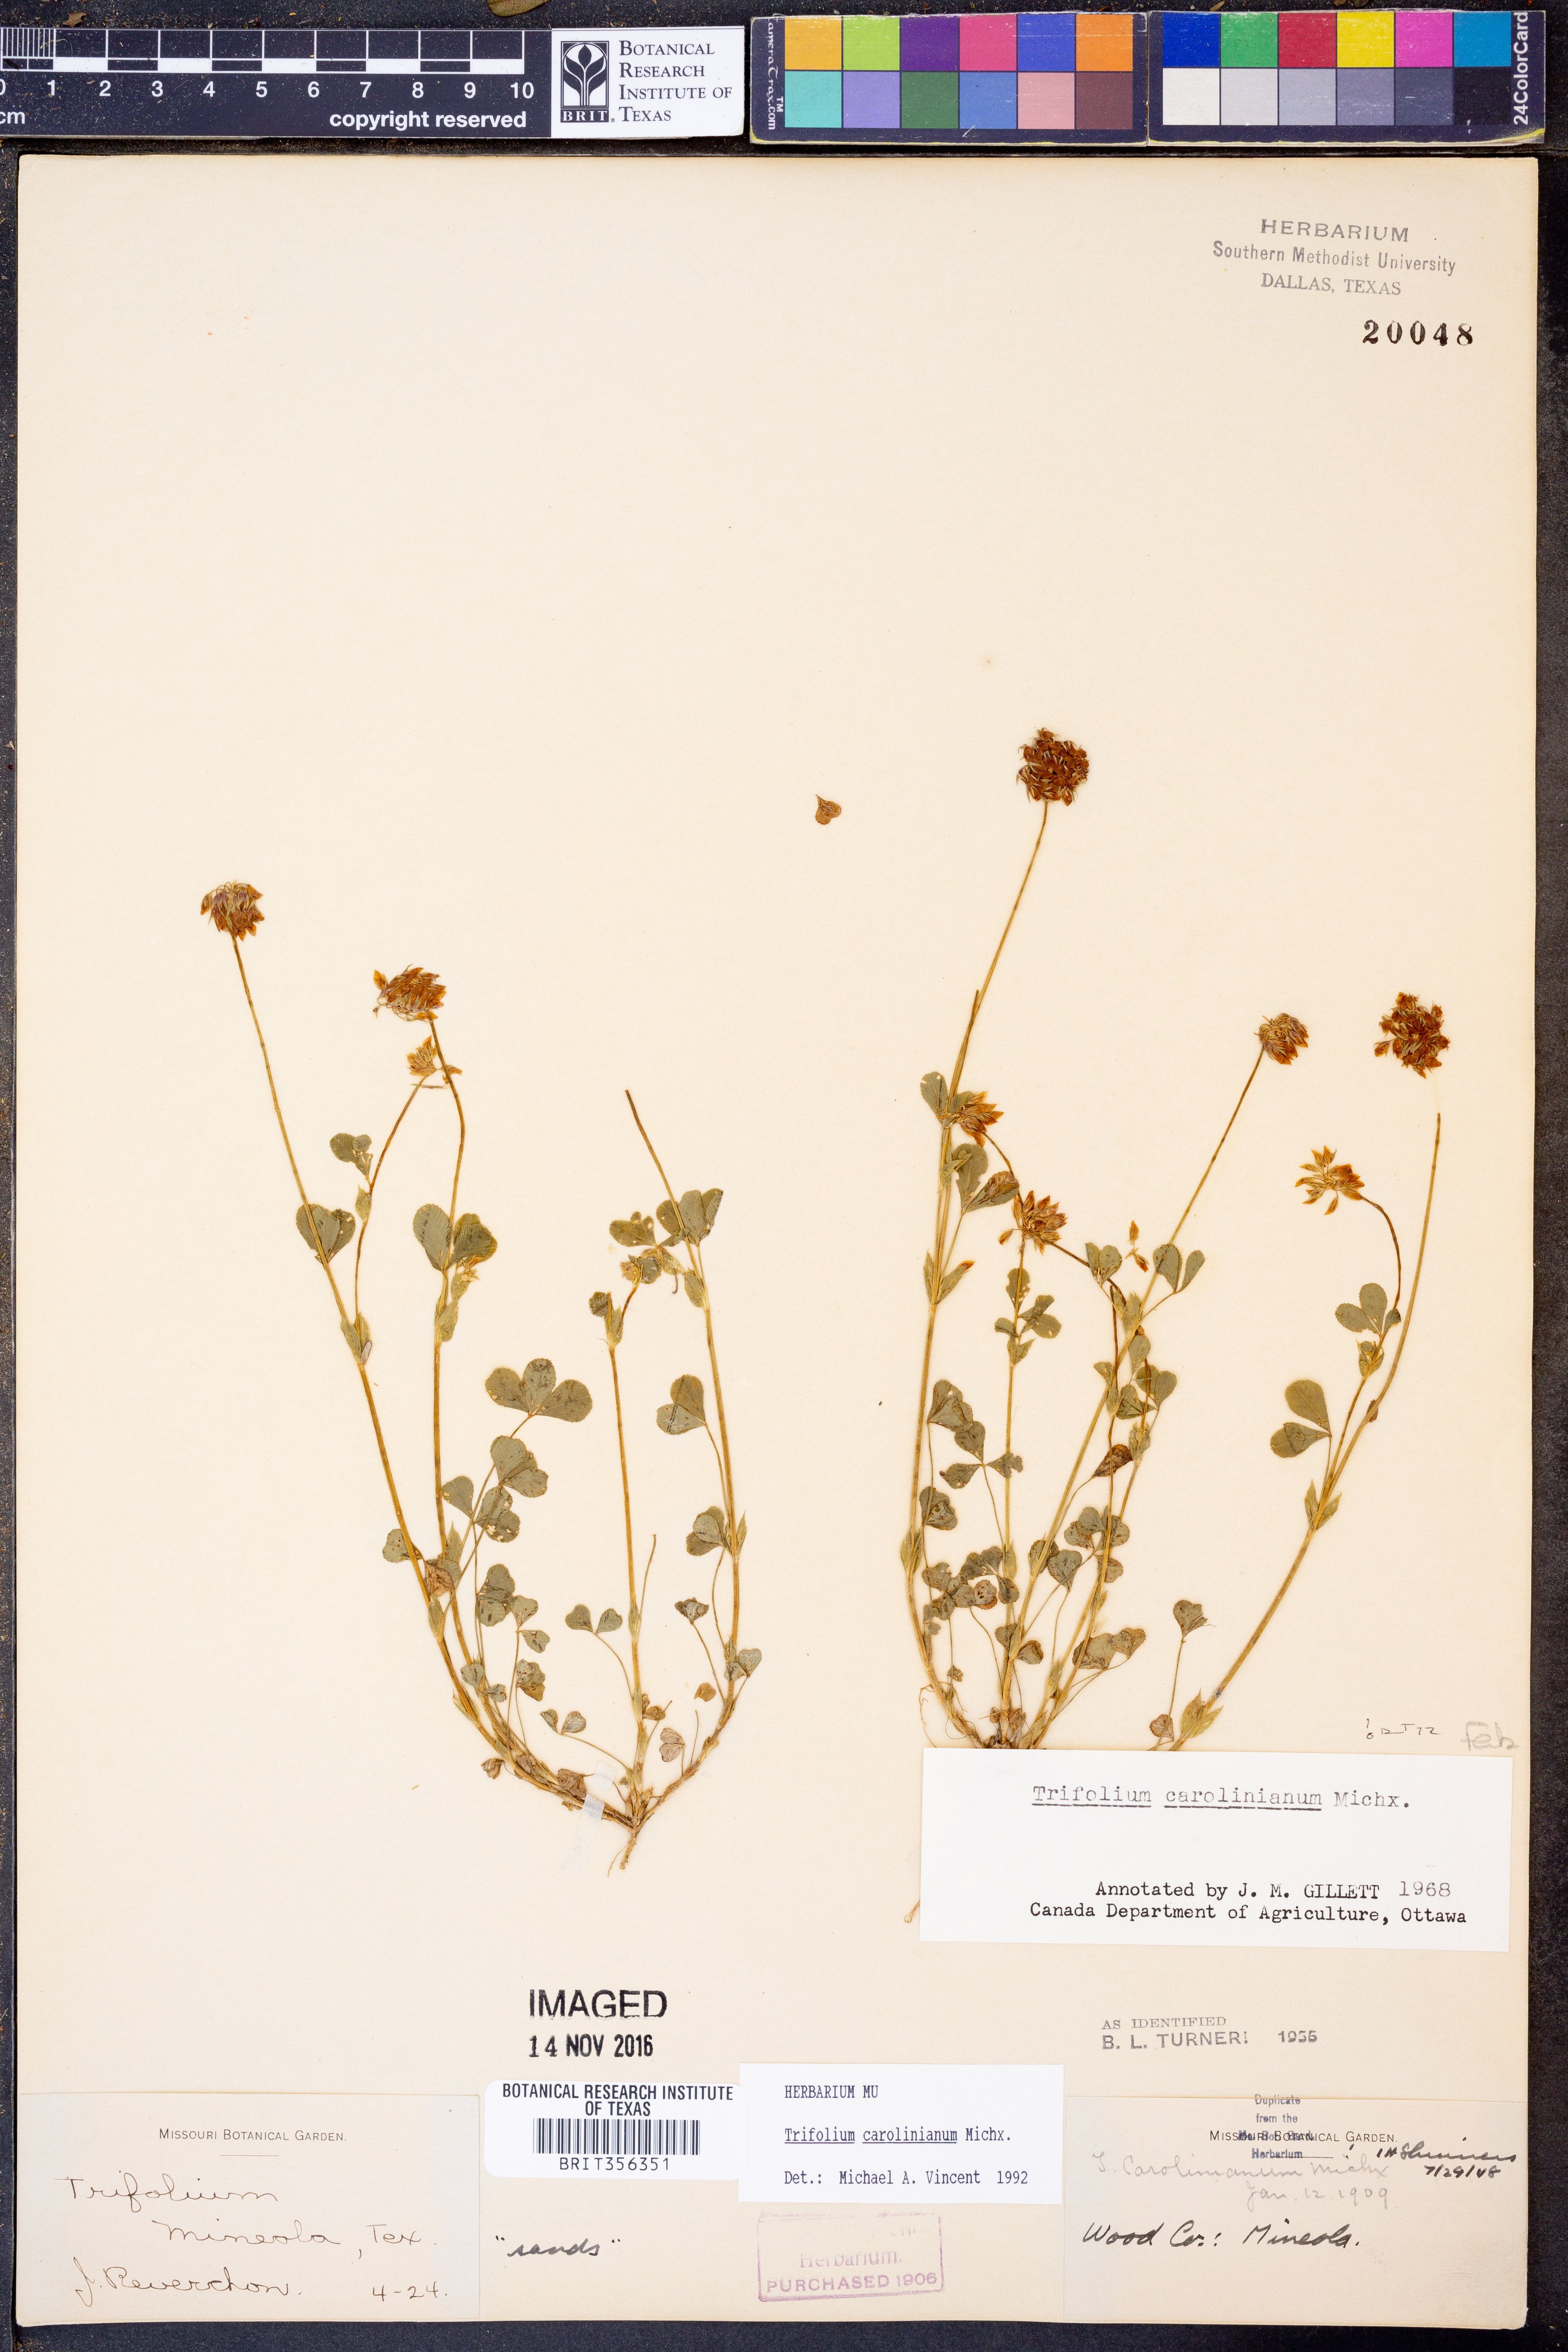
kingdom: Plantae
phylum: Tracheophyta
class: Magnoliopsida
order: Fabales
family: Fabaceae
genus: Trifolium
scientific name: Trifolium carolinianum
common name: Wild white clover
